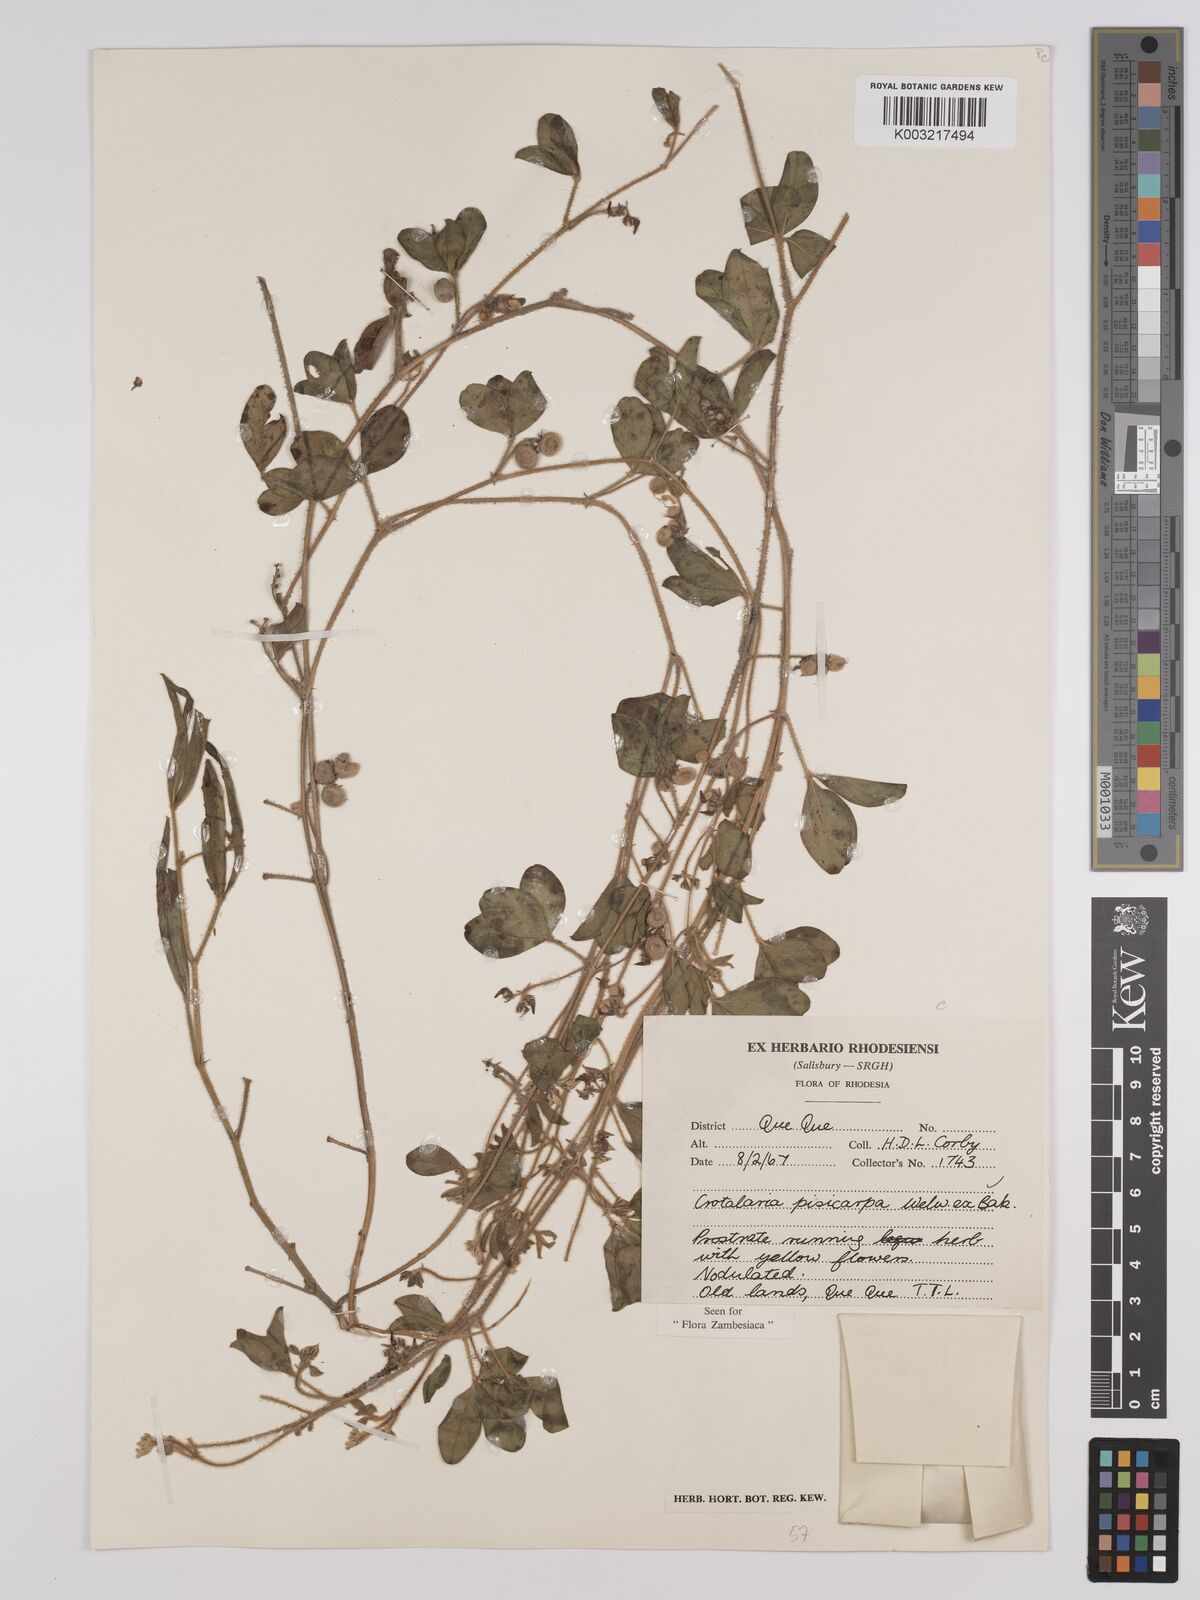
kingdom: Plantae
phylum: Tracheophyta
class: Magnoliopsida
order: Fabales
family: Fabaceae
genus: Crotalaria
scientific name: Crotalaria pisicarpa
